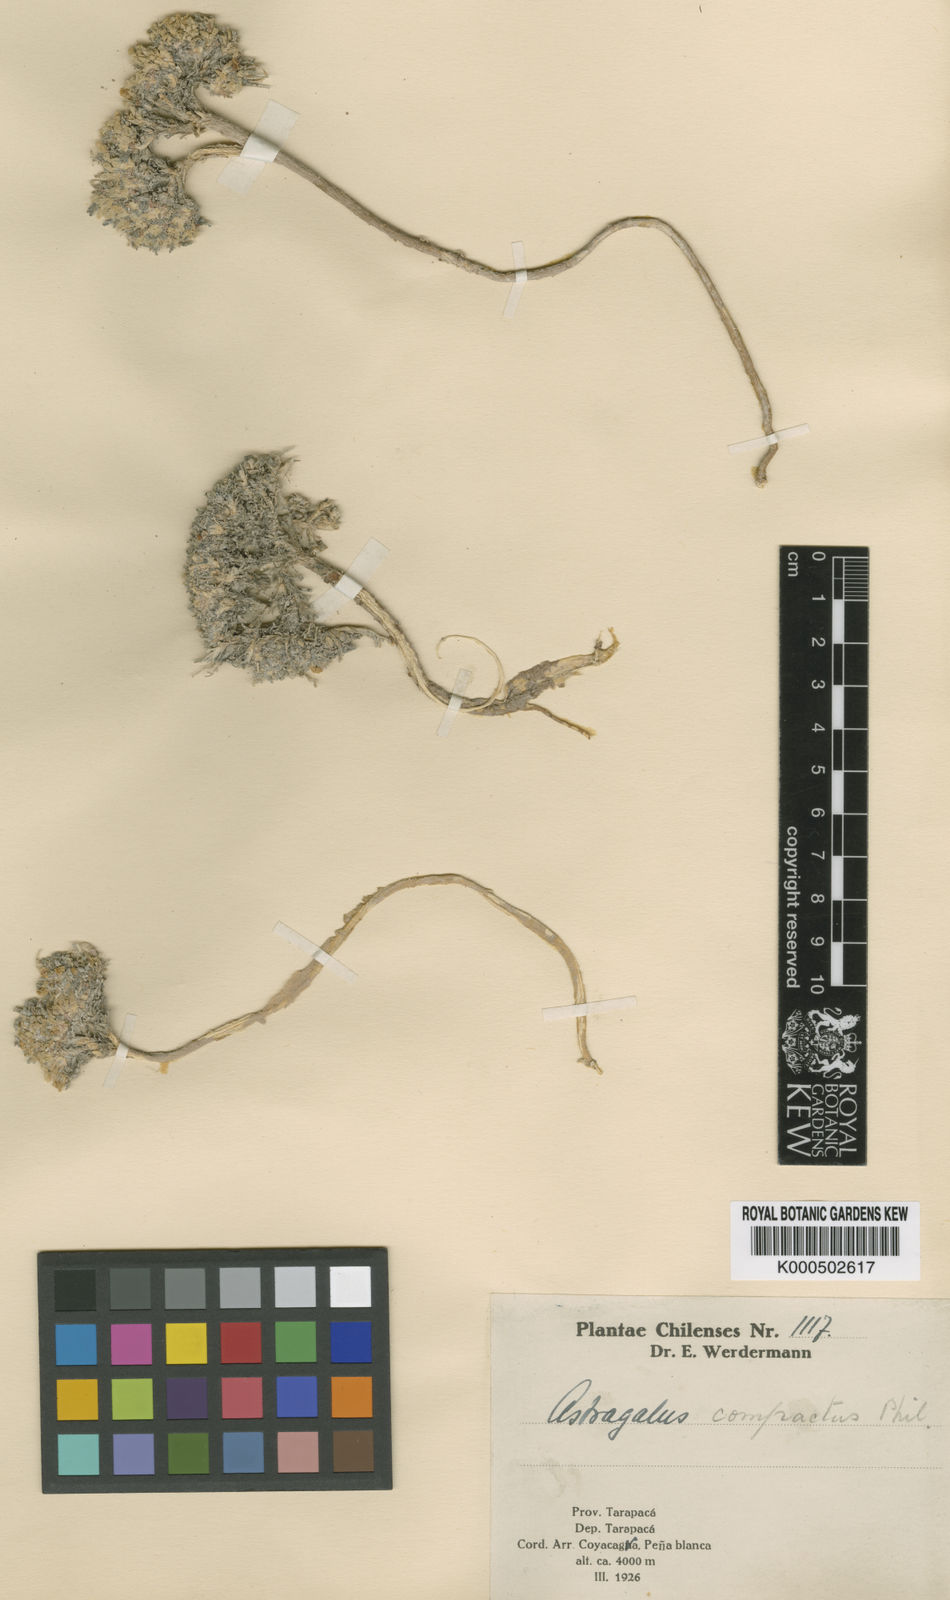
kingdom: Plantae
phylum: Tracheophyta
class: Magnoliopsida
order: Fabales
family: Fabaceae
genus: Astragalus
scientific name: Astragalus reichei
